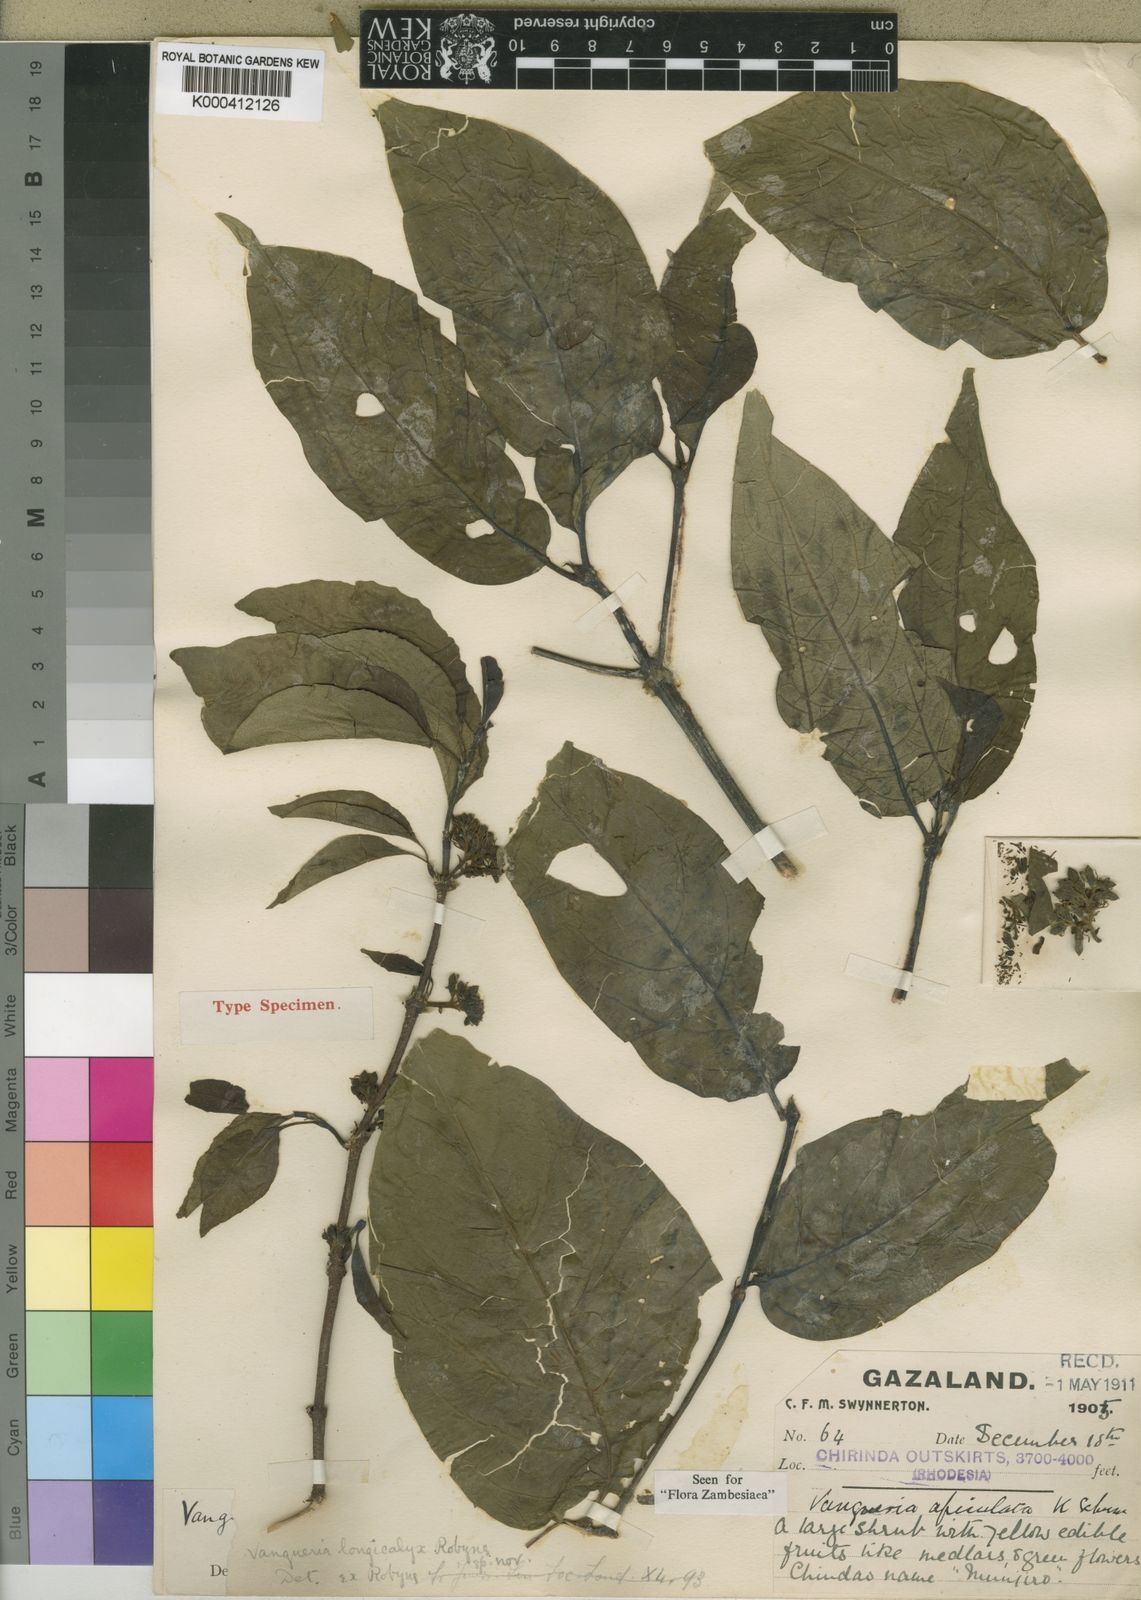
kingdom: Plantae
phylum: Tracheophyta
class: Magnoliopsida
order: Gentianales
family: Rubiaceae
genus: Vangueria
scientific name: Vangueria apiculata
